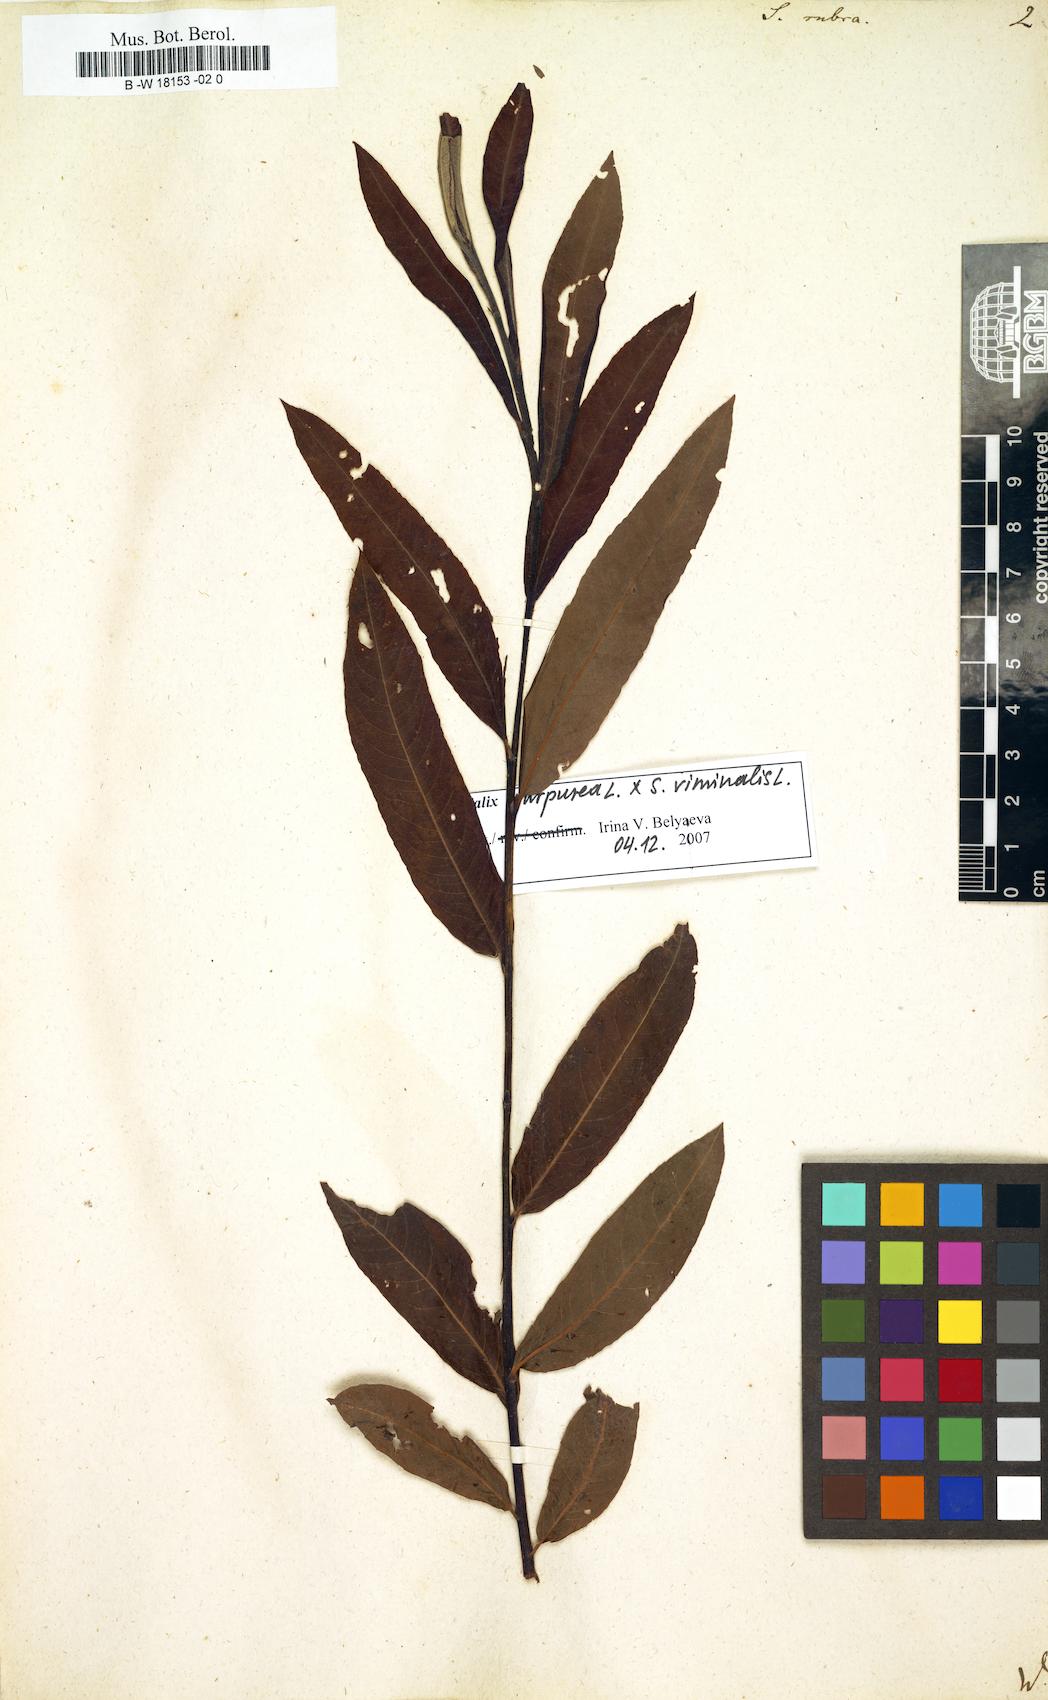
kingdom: Plantae
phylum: Tracheophyta
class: Magnoliopsida
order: Malpighiales
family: Salicaceae
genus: Salix
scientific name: Salix rubra
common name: Green-leaf willow
